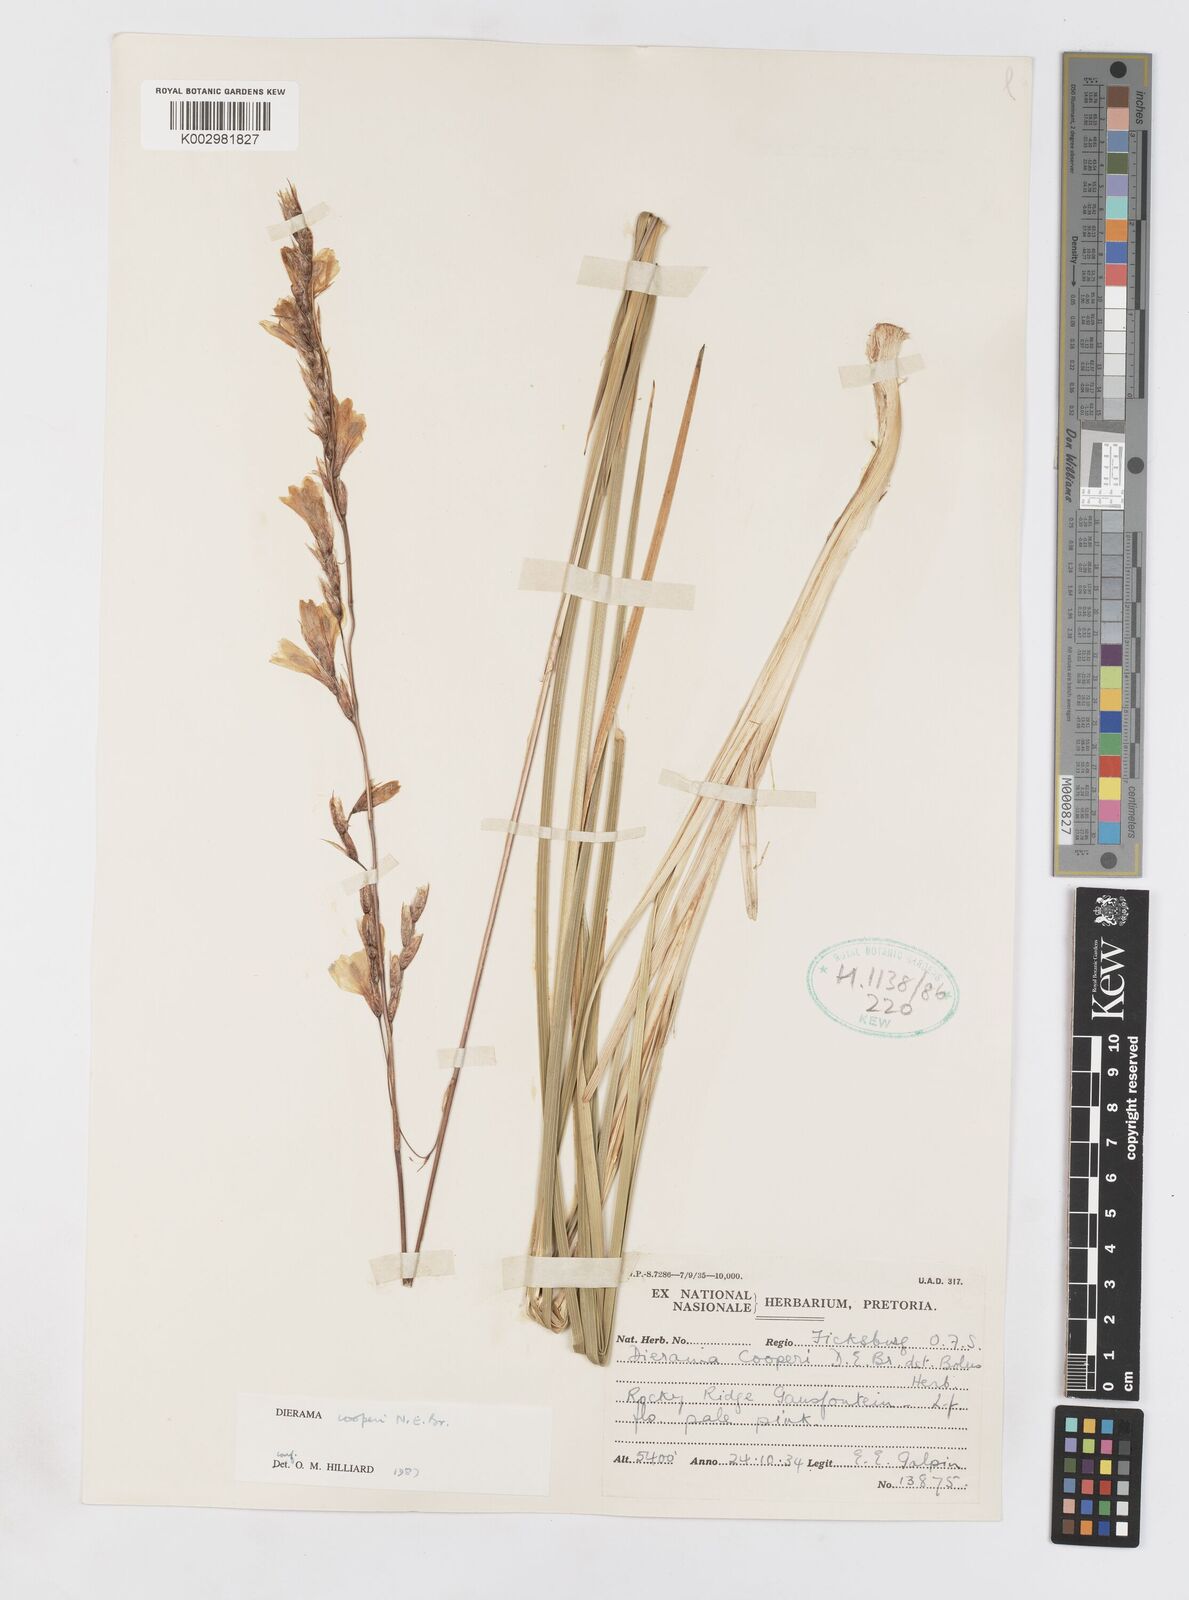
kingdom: Plantae
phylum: Tracheophyta
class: Liliopsida
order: Asparagales
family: Iridaceae
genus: Dierama
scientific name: Dierama cooperi
